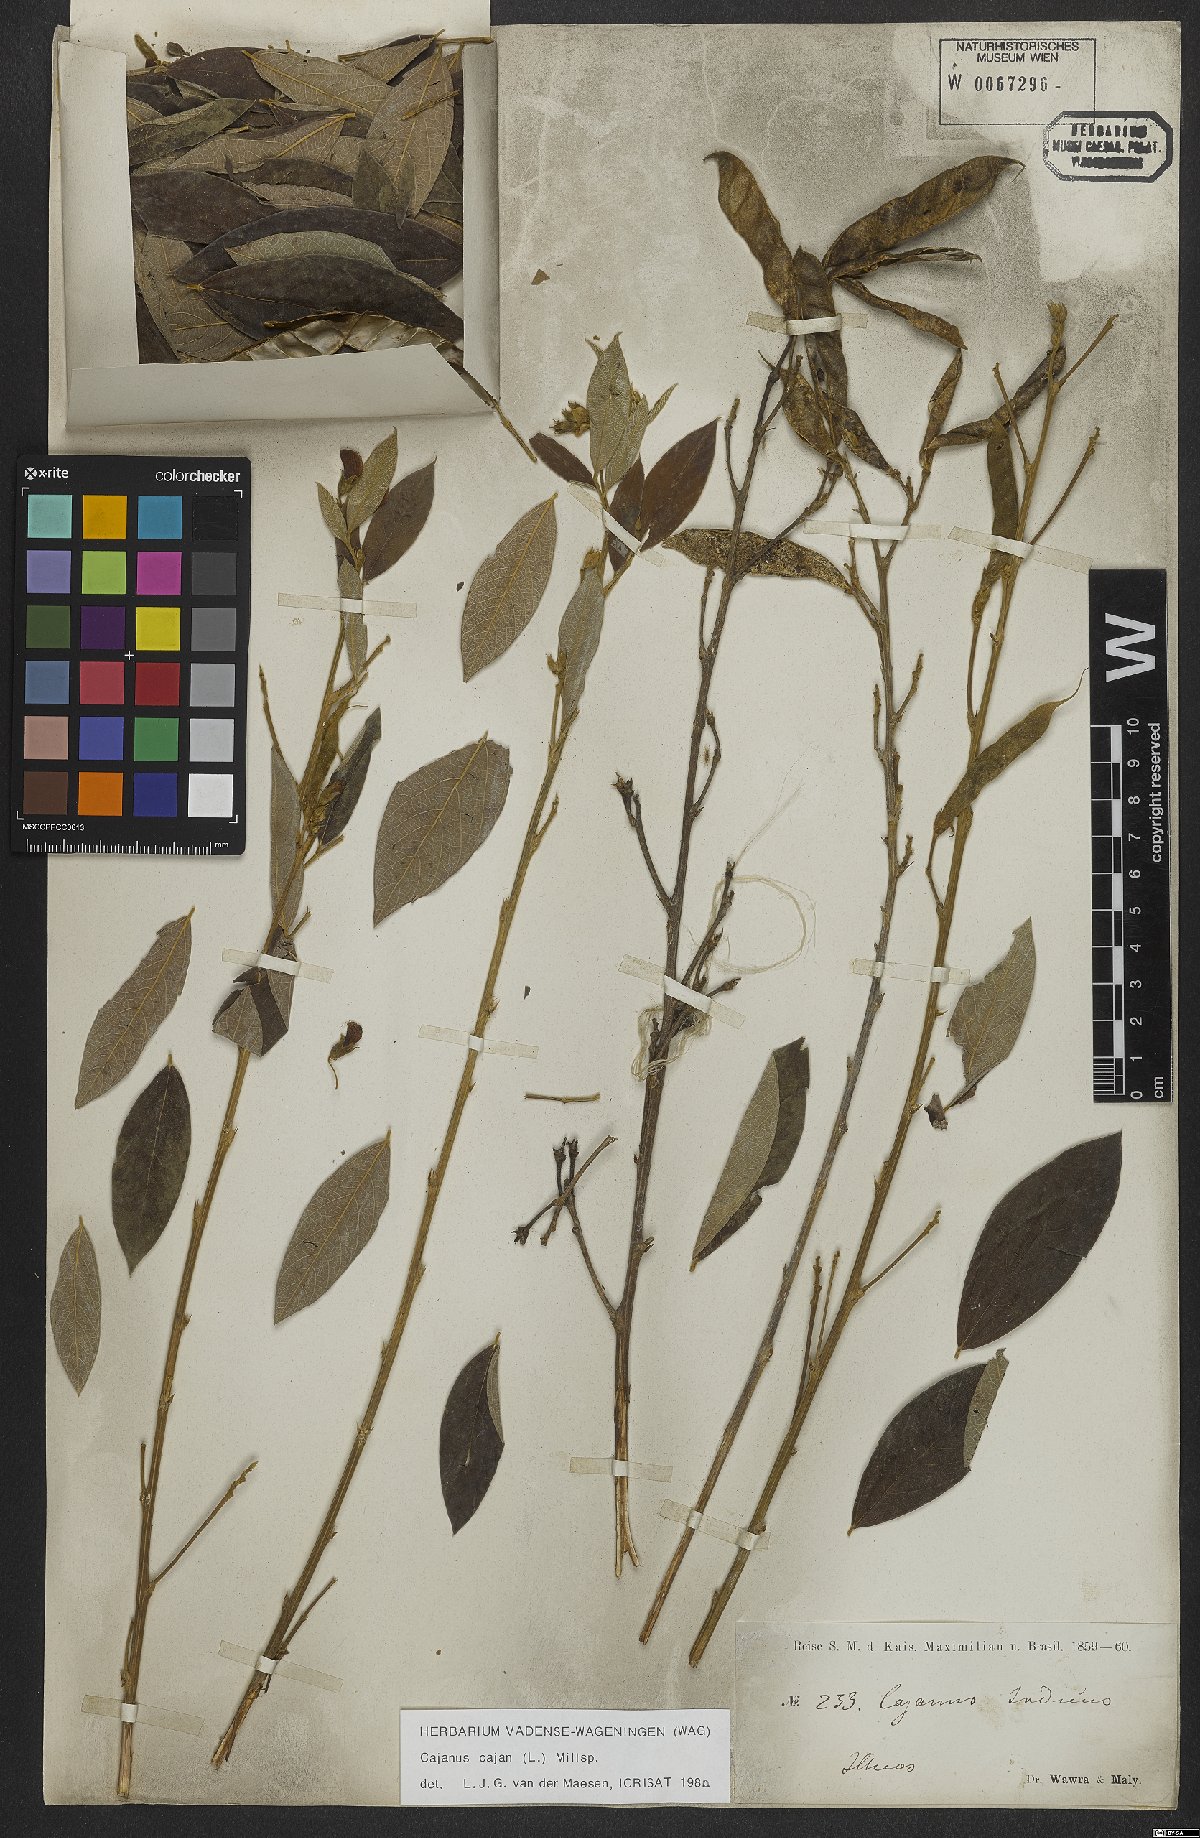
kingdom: Plantae
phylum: Tracheophyta
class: Magnoliopsida
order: Fabales
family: Fabaceae
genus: Cajanus
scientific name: Cajanus cajan
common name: Pigeonpea
